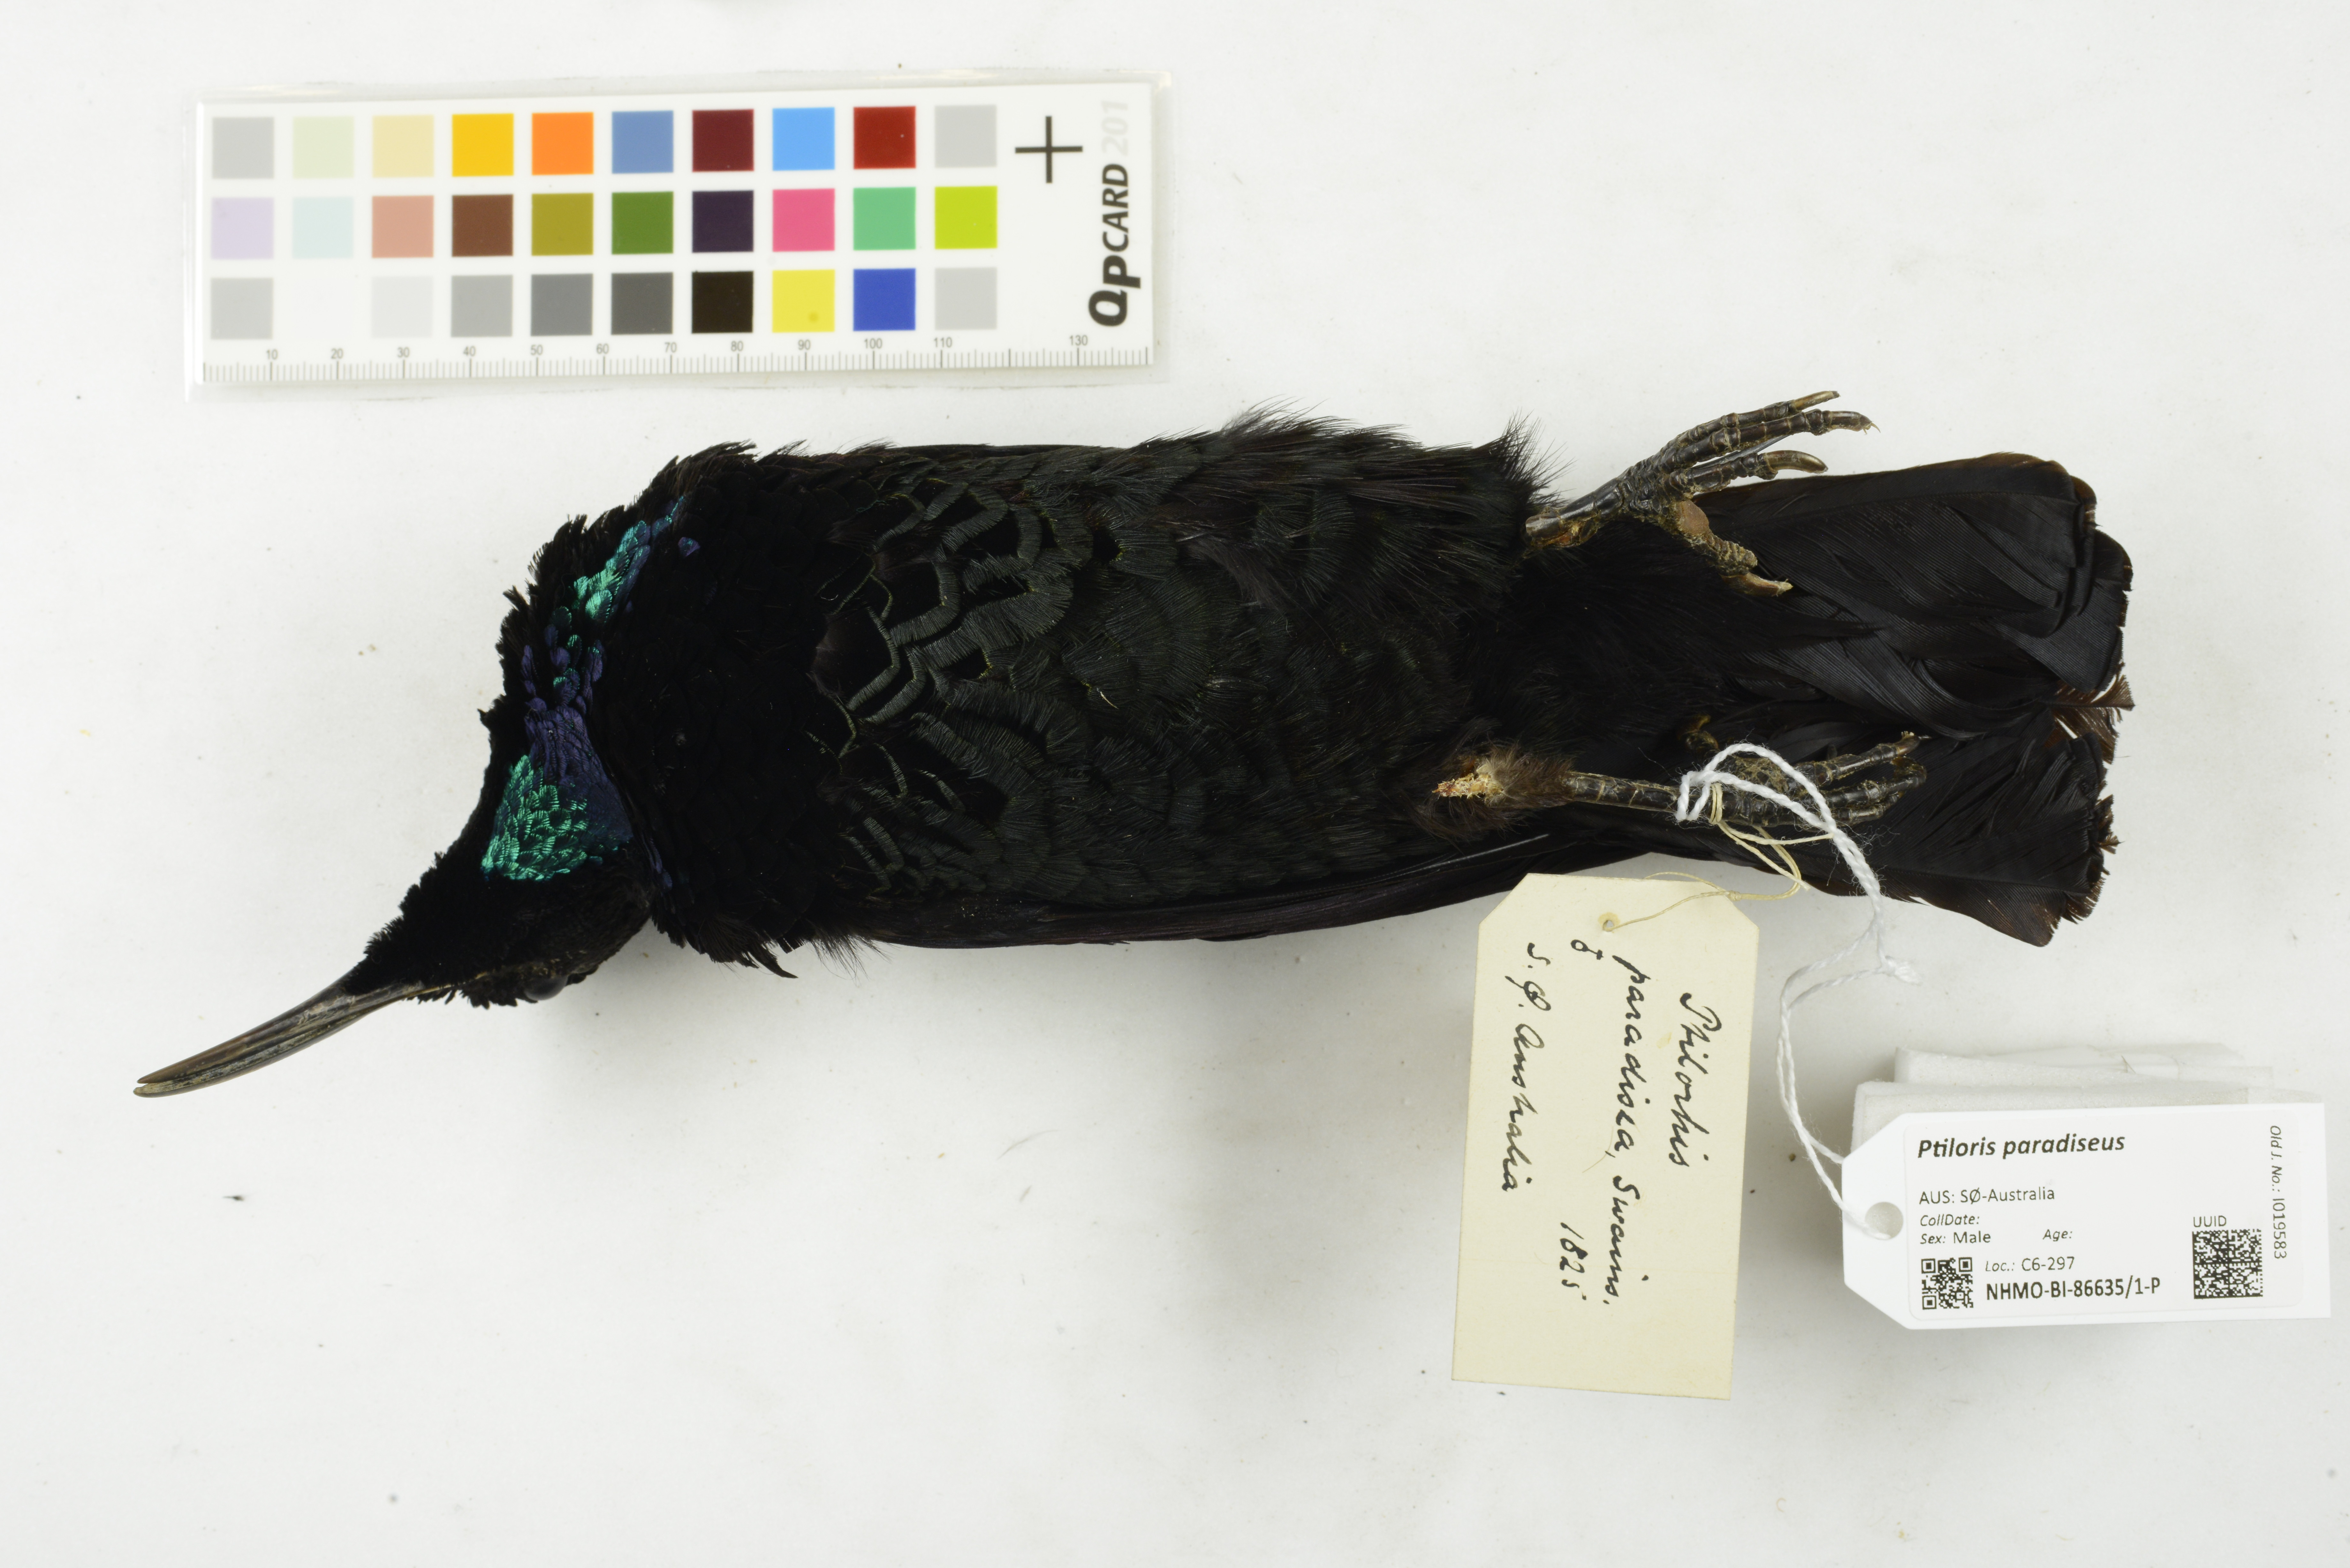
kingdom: Animalia
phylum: Chordata
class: Aves
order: Passeriformes
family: Paradisaeidae
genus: Ptiloris
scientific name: Ptiloris paradiseus
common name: Paradise riflebird
